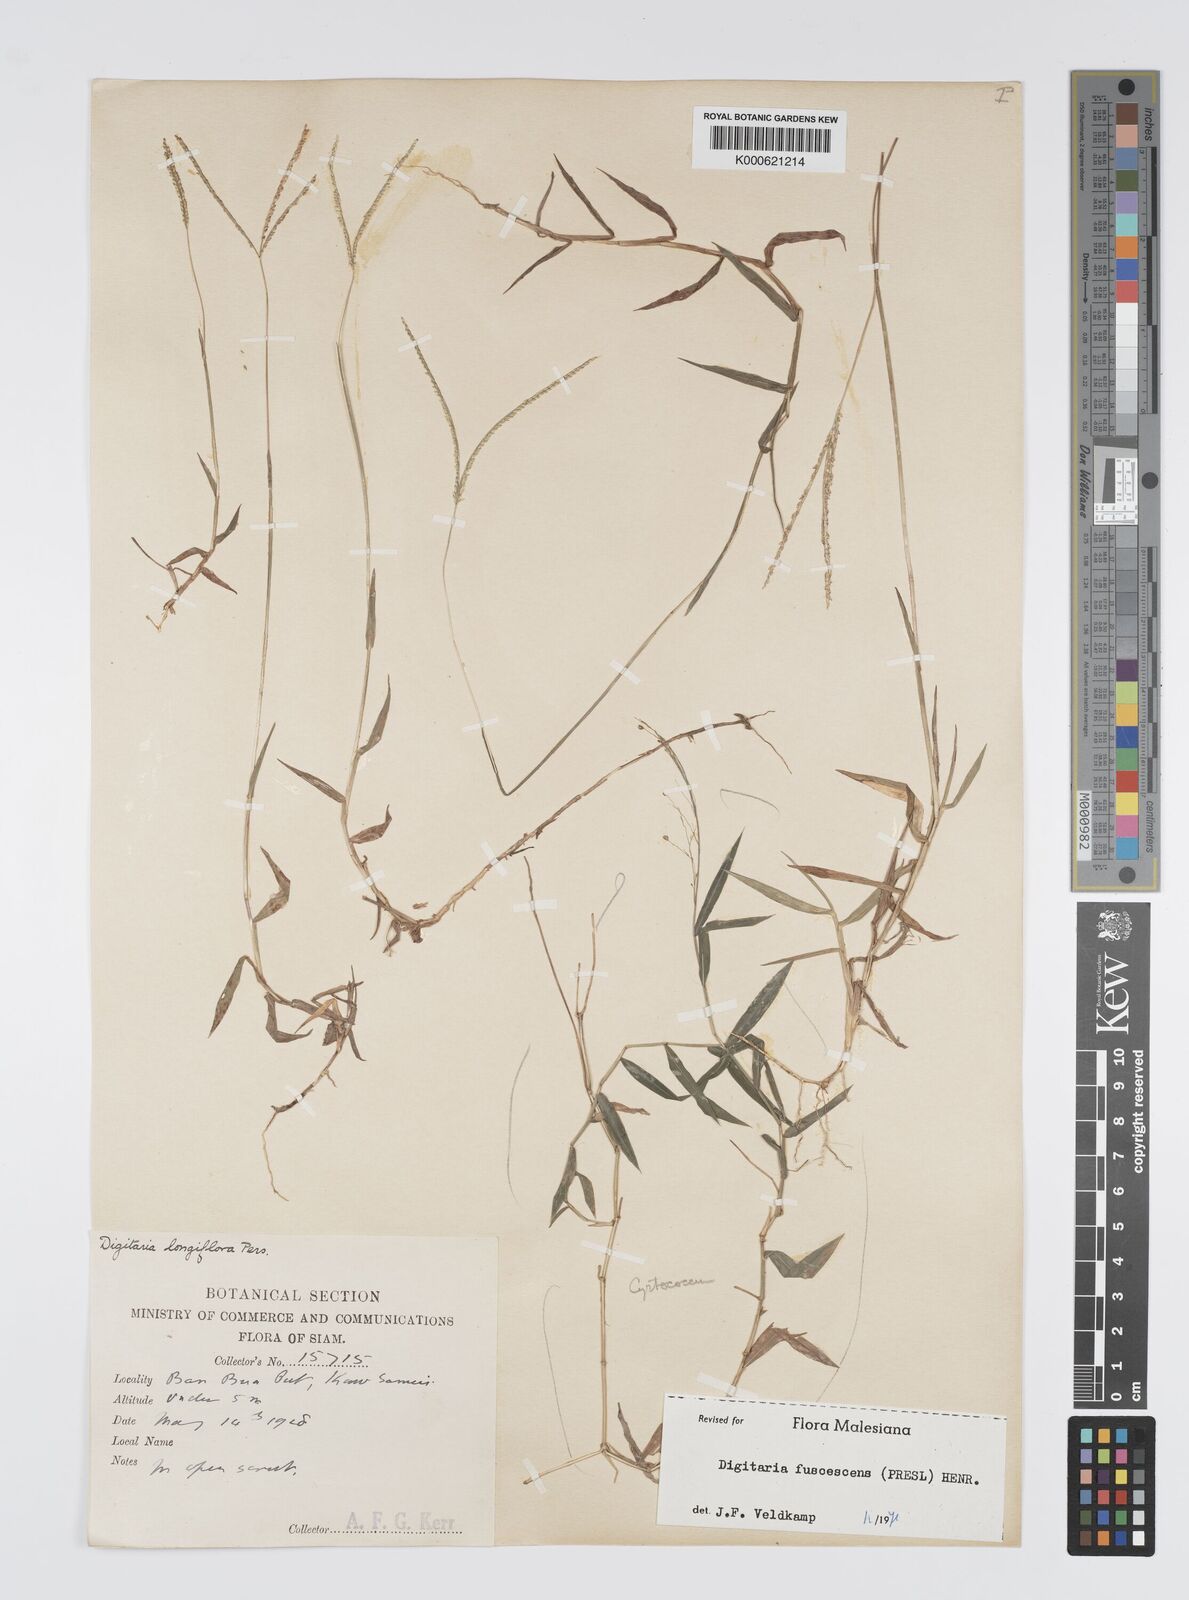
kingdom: Plantae
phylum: Tracheophyta
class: Liliopsida
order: Poales
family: Poaceae
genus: Digitaria
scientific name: Digitaria fuscescens
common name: Yellow crabgrass
